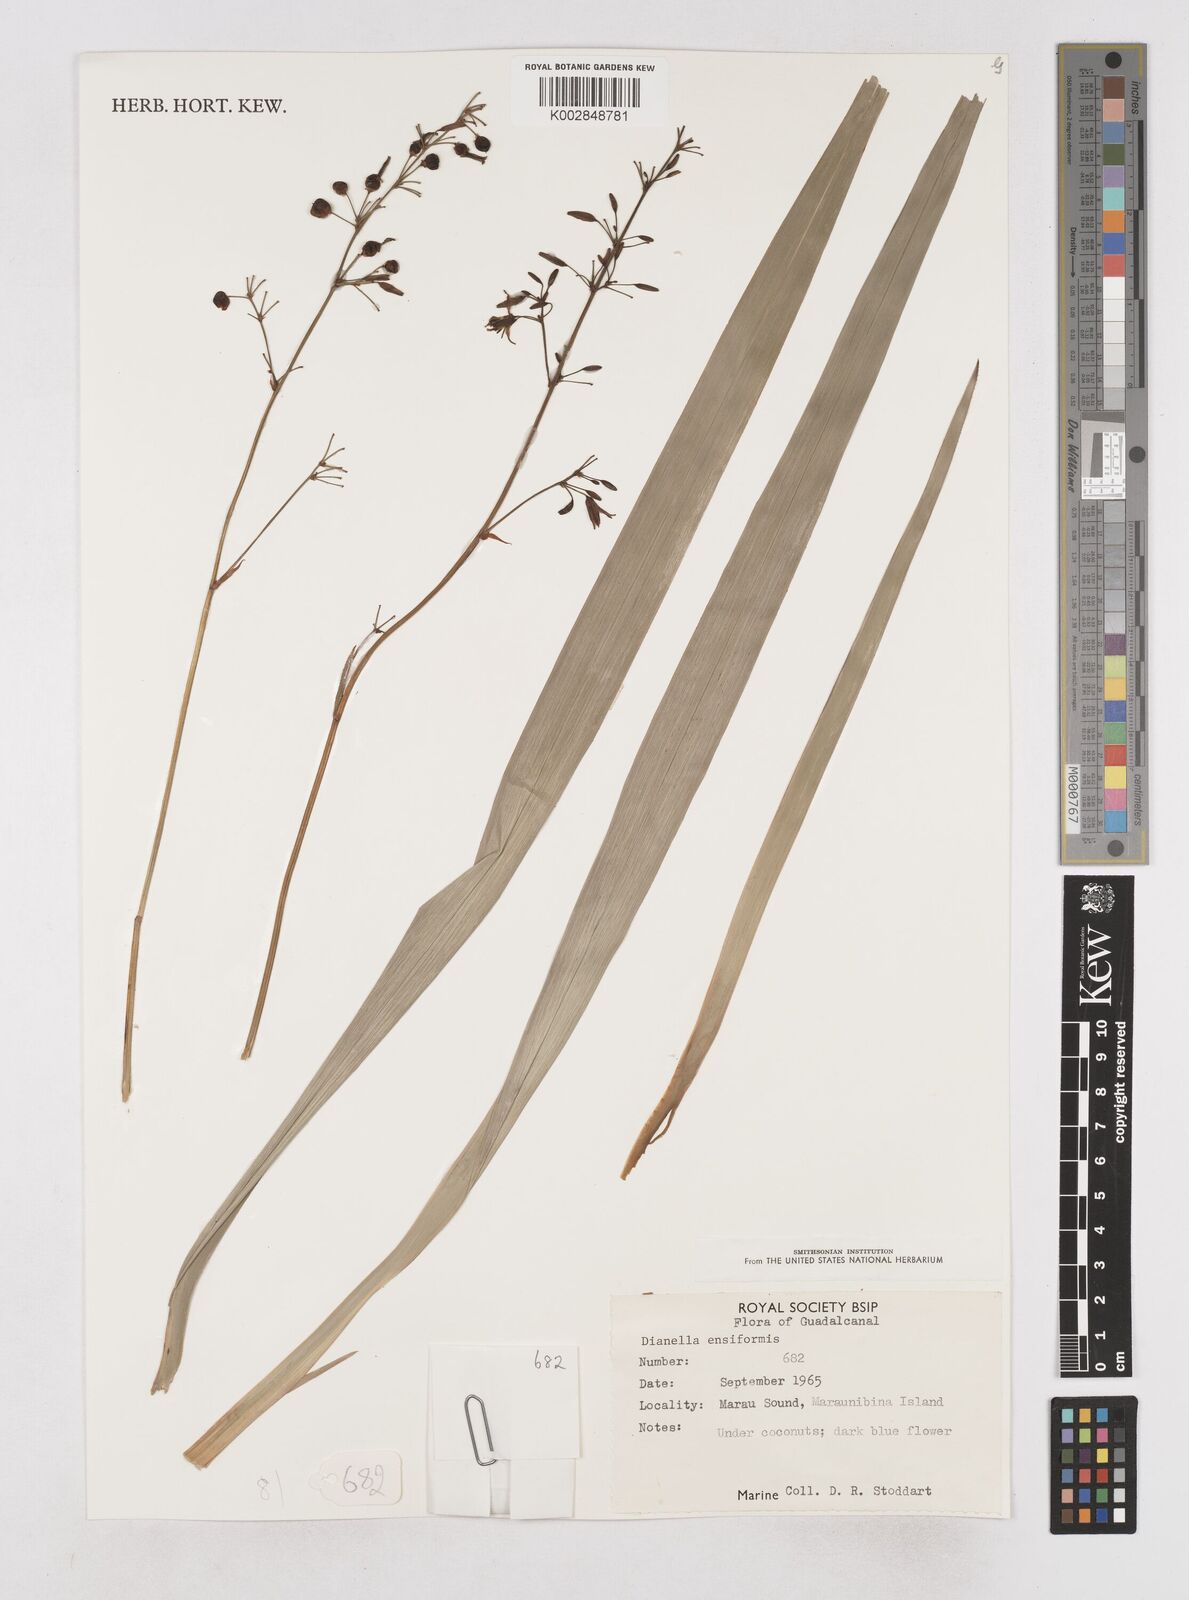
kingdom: Plantae
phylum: Tracheophyta
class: Liliopsida
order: Asparagales
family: Asphodelaceae
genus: Dianella
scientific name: Dianella ensifolia
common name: New zealand lilyplant
